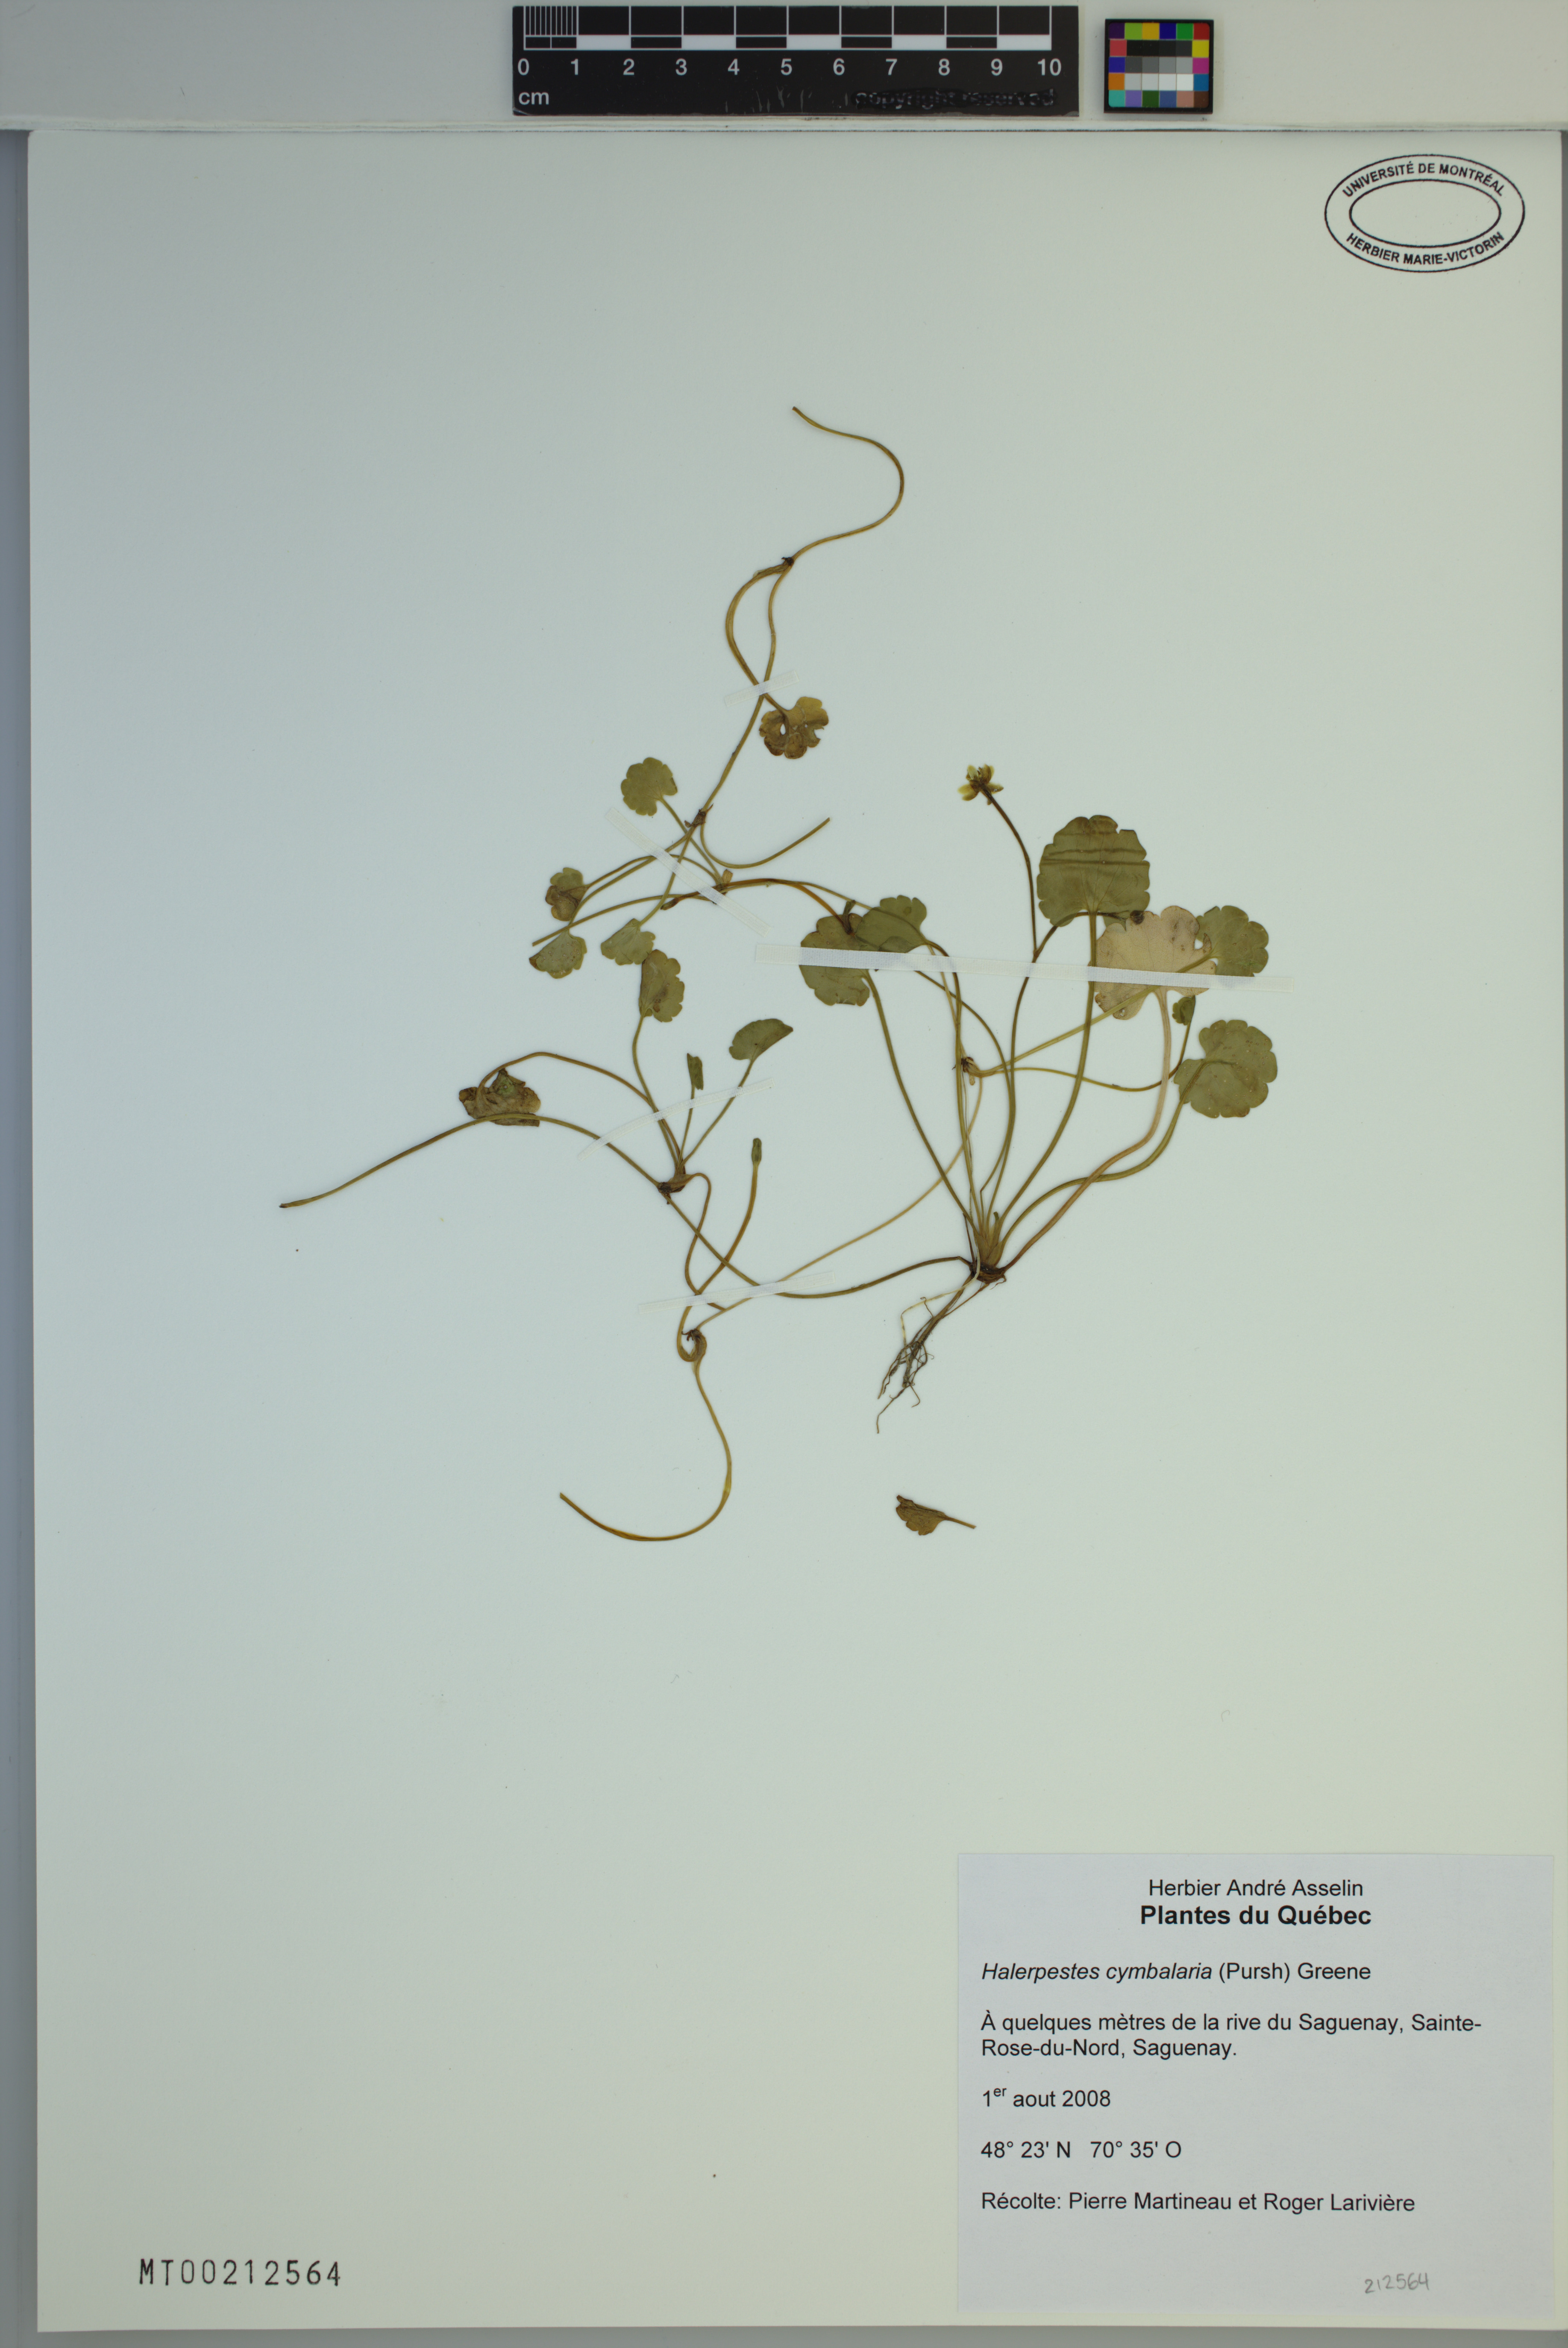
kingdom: Plantae
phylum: Tracheophyta
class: Magnoliopsida
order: Ranunculales
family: Ranunculaceae
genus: Halerpestes
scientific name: Halerpestes cymbalaria
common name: Seaside crowfoot
